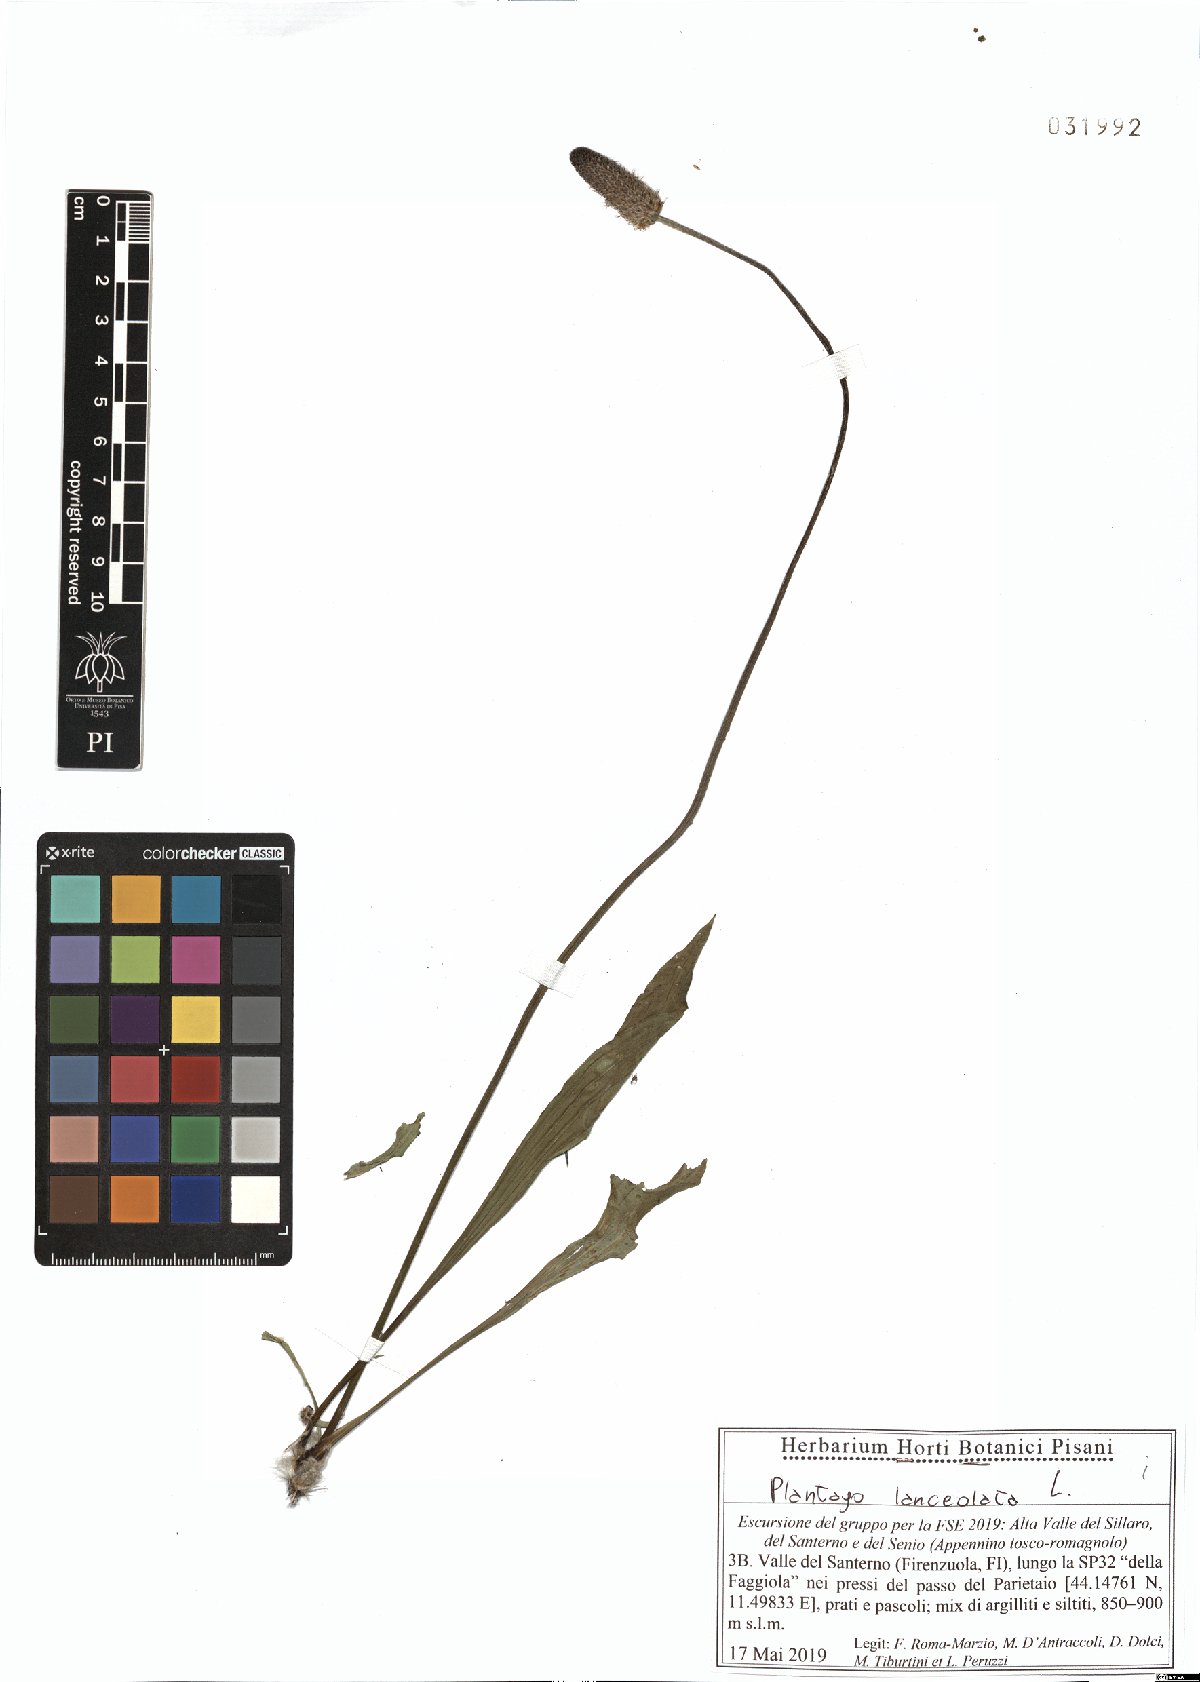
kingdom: Plantae
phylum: Tracheophyta
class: Magnoliopsida
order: Lamiales
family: Plantaginaceae
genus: Plantago
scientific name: Plantago lanceolata
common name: Ribwort plantain
